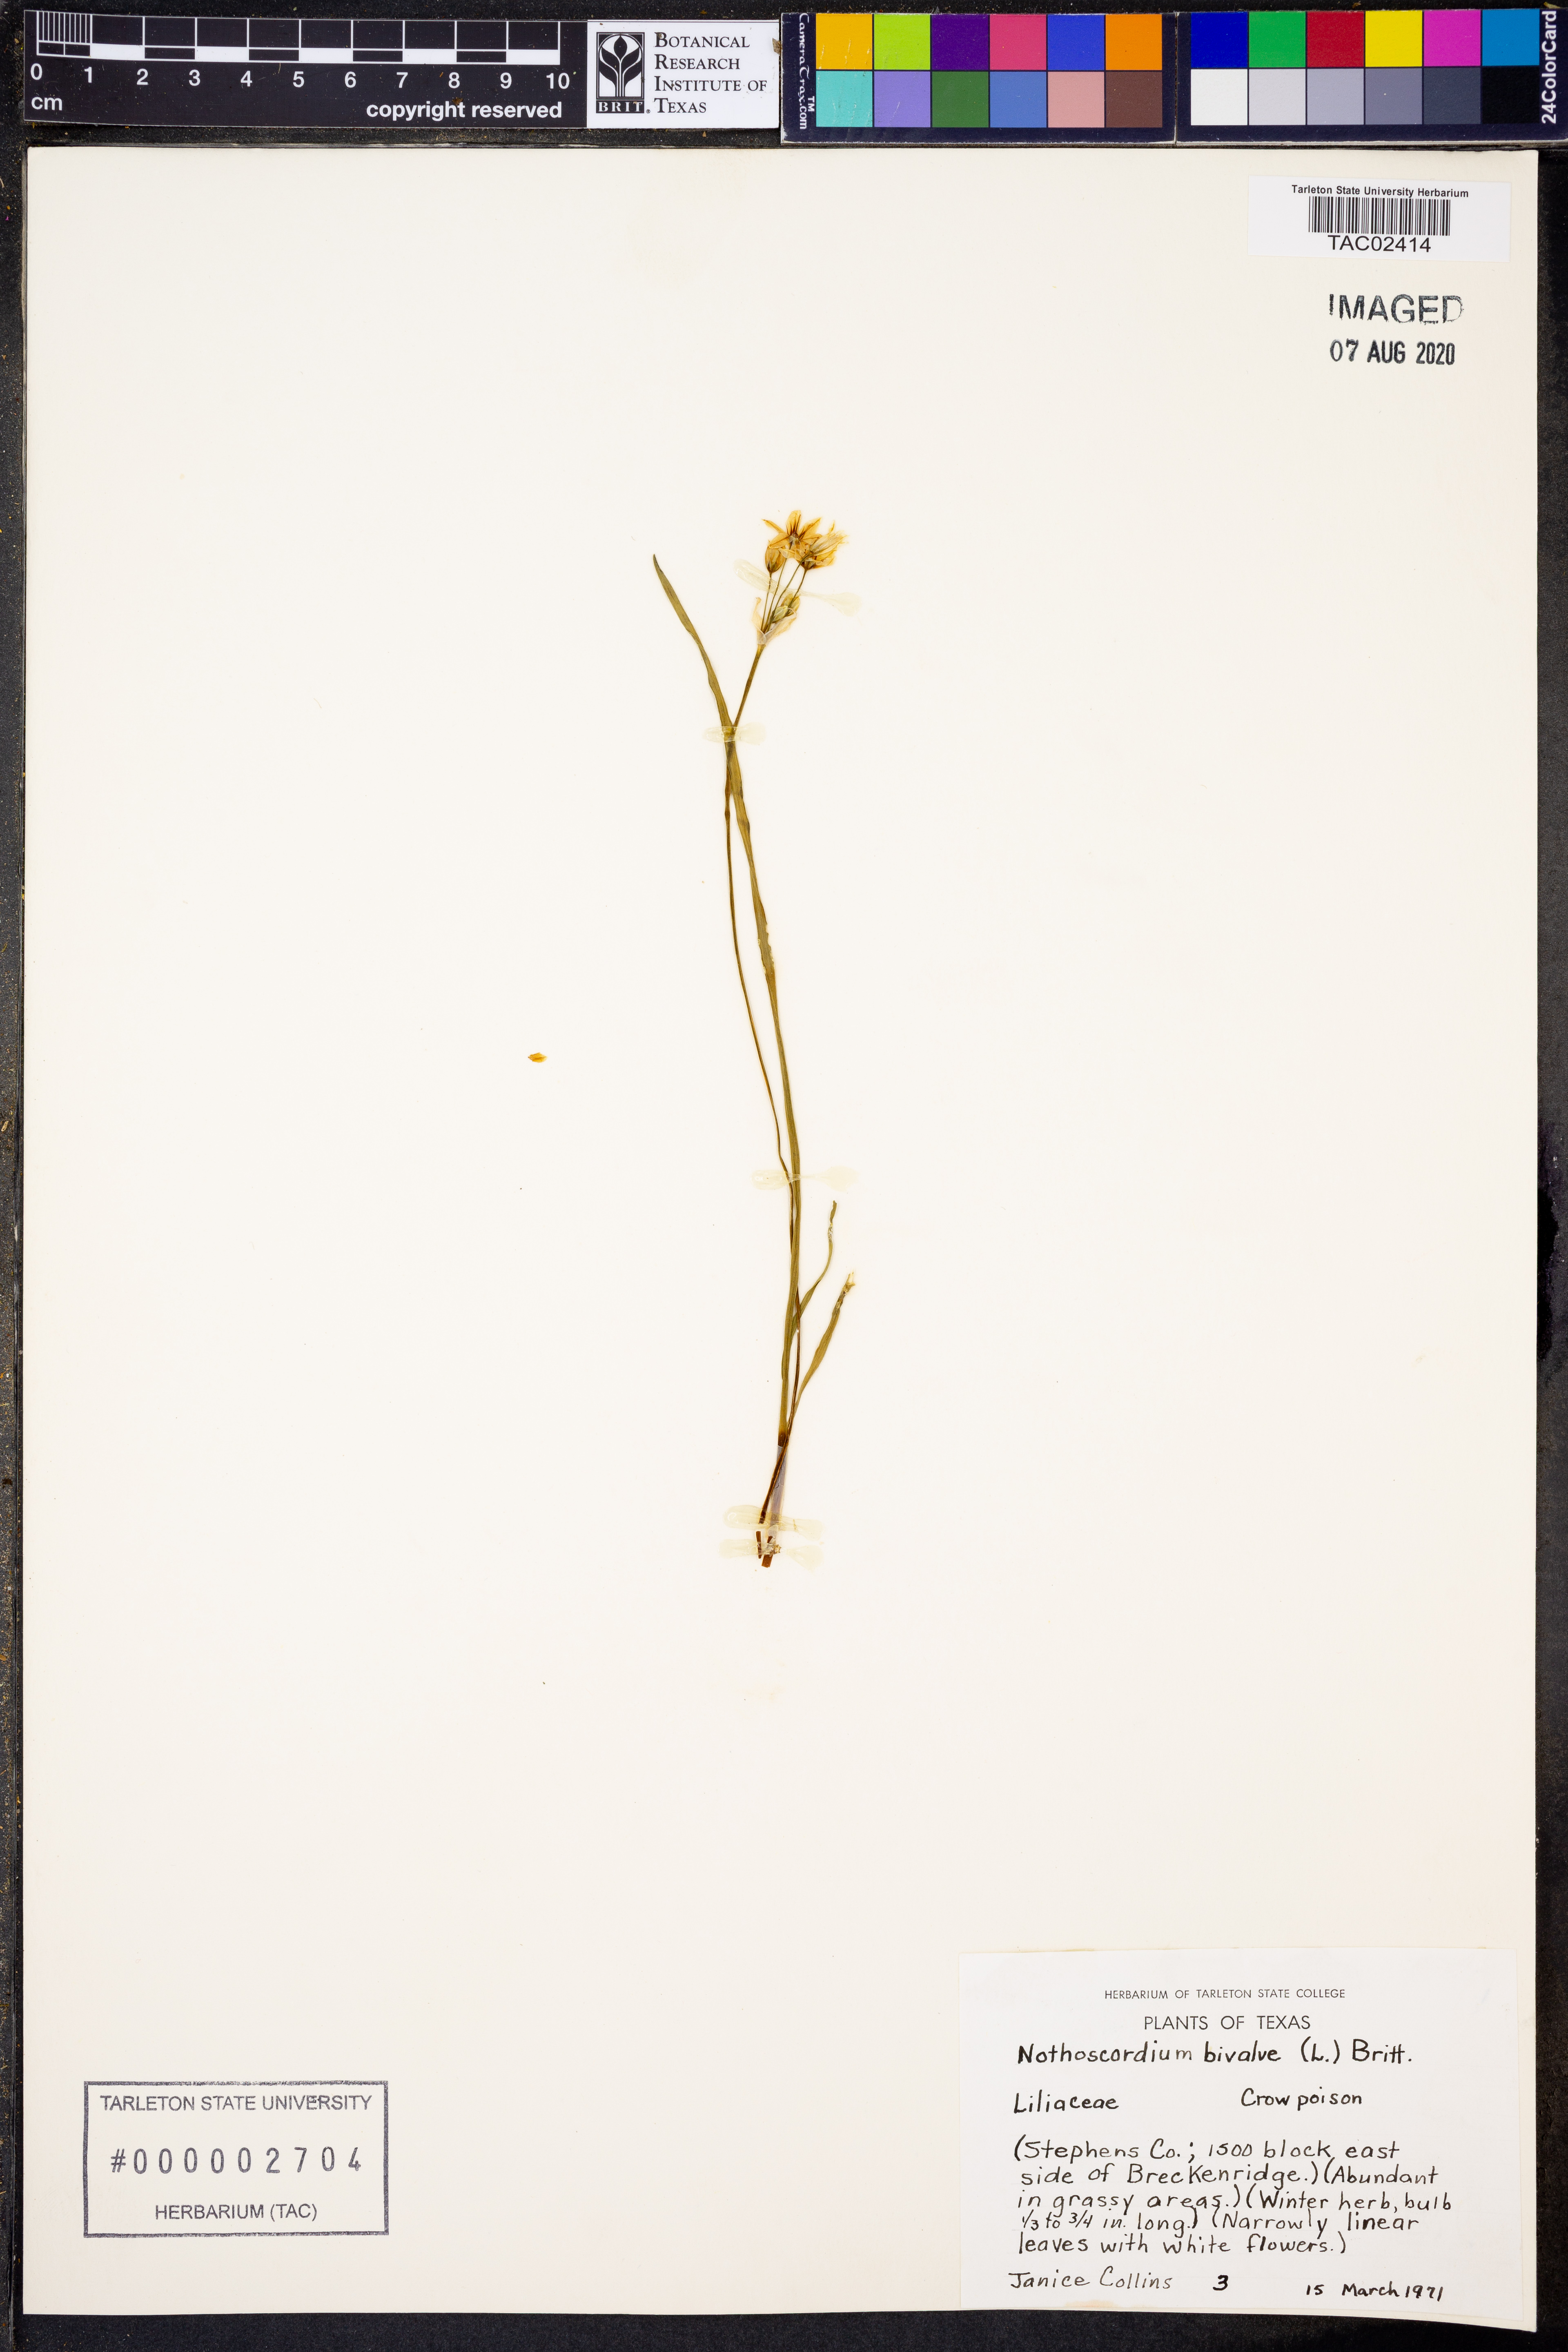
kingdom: Plantae
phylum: Tracheophyta
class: Liliopsida
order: Asparagales
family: Amaryllidaceae
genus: Nothoscordum
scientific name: Nothoscordum bivalve
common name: Crow-poison
